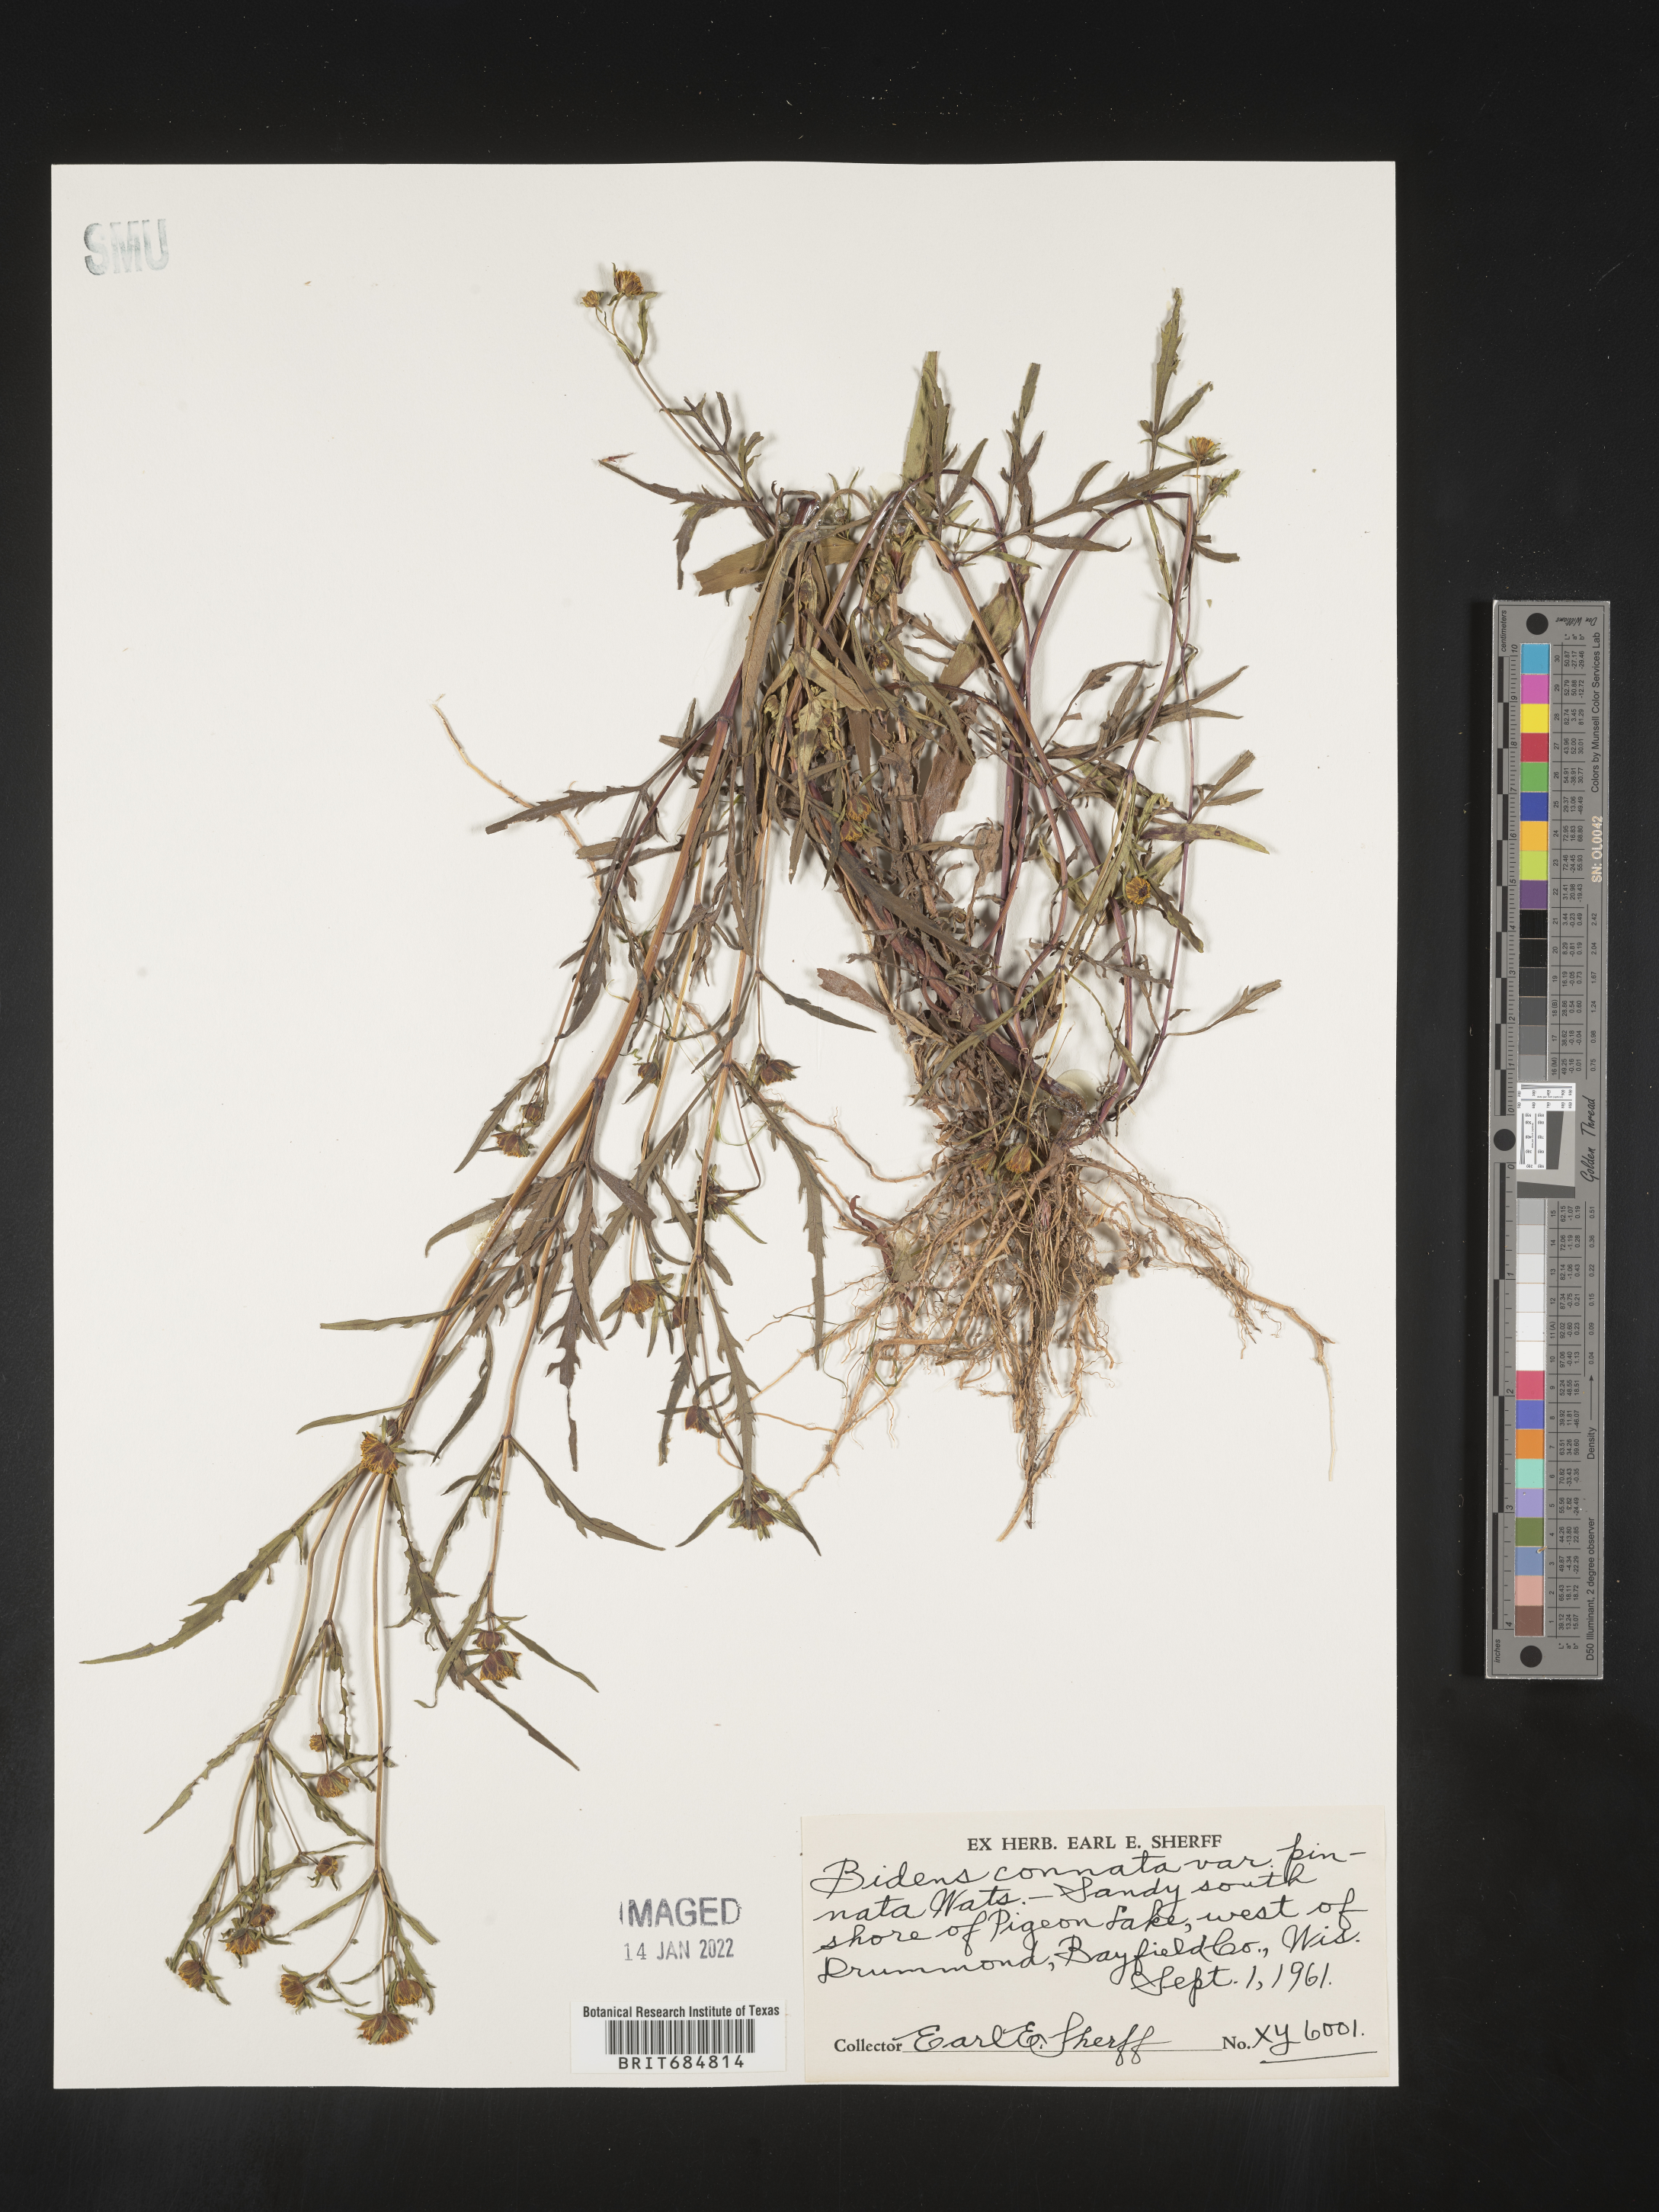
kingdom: Plantae
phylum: Tracheophyta
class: Magnoliopsida
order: Asterales
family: Asteraceae
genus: Bidens
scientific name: Bidens tripartita
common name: Trifid bur-marigold
